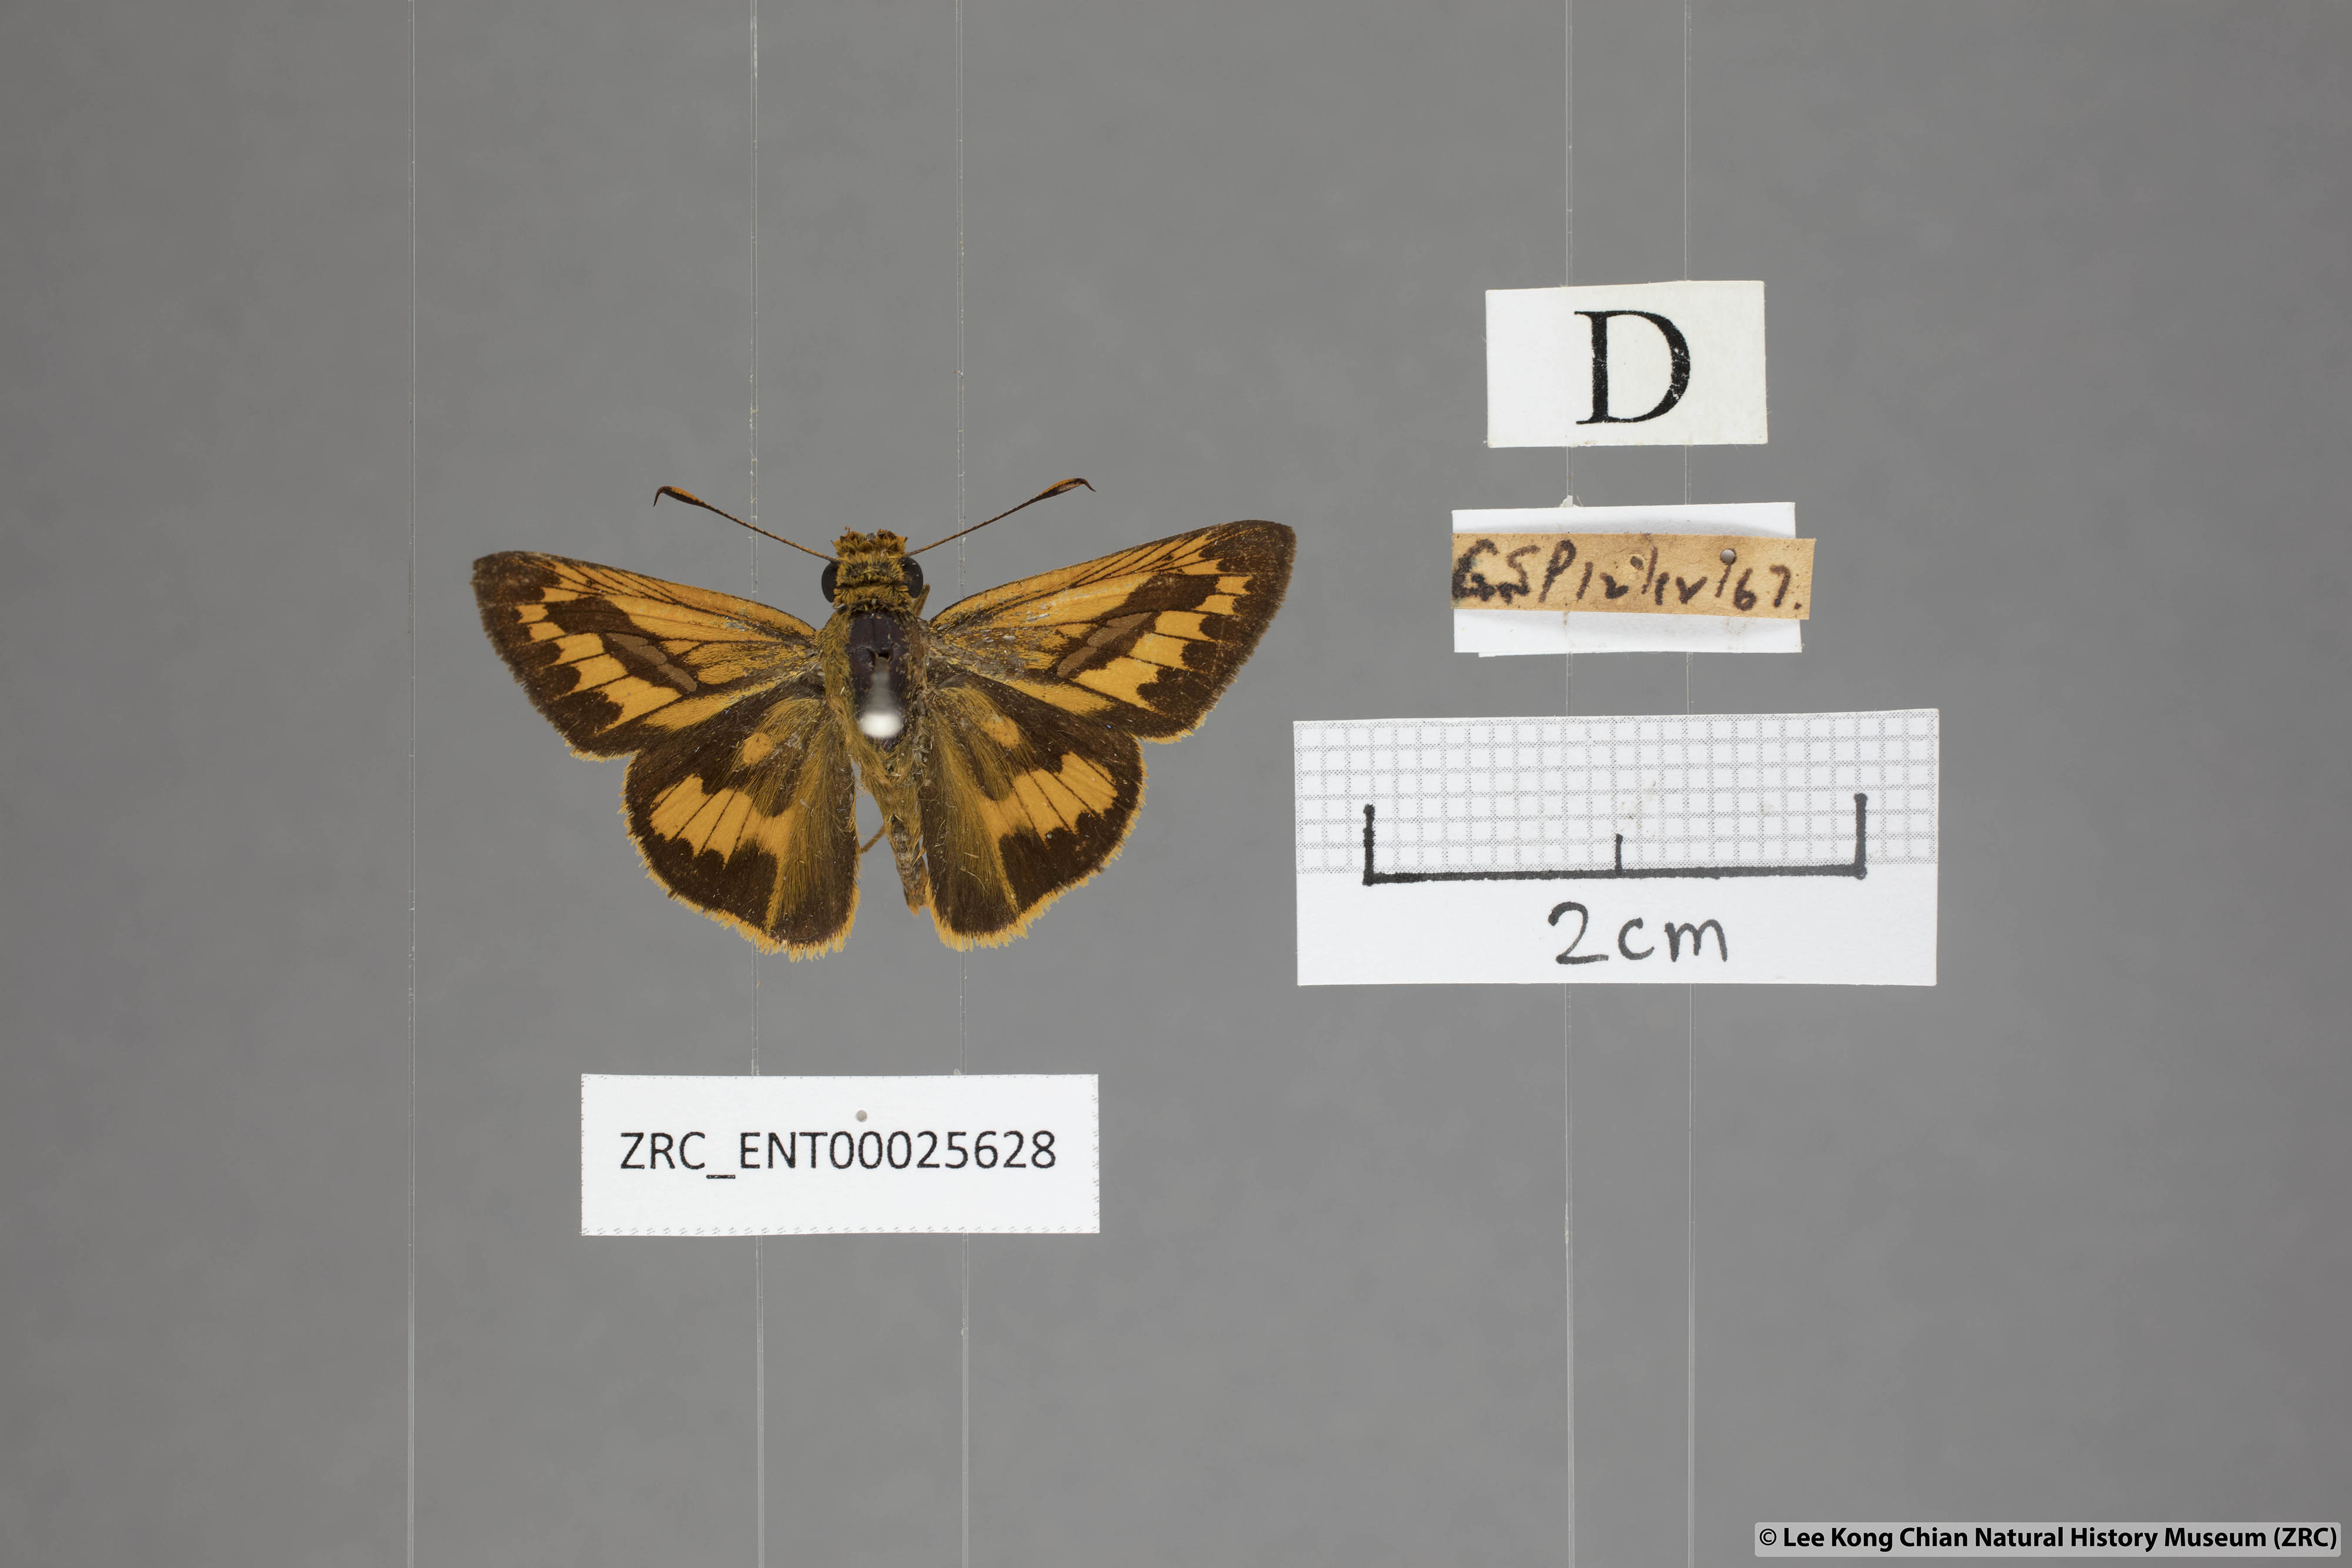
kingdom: Animalia
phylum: Arthropoda
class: Insecta
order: Lepidoptera
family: Hesperiidae
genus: Telicota
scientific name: Telicota augias
